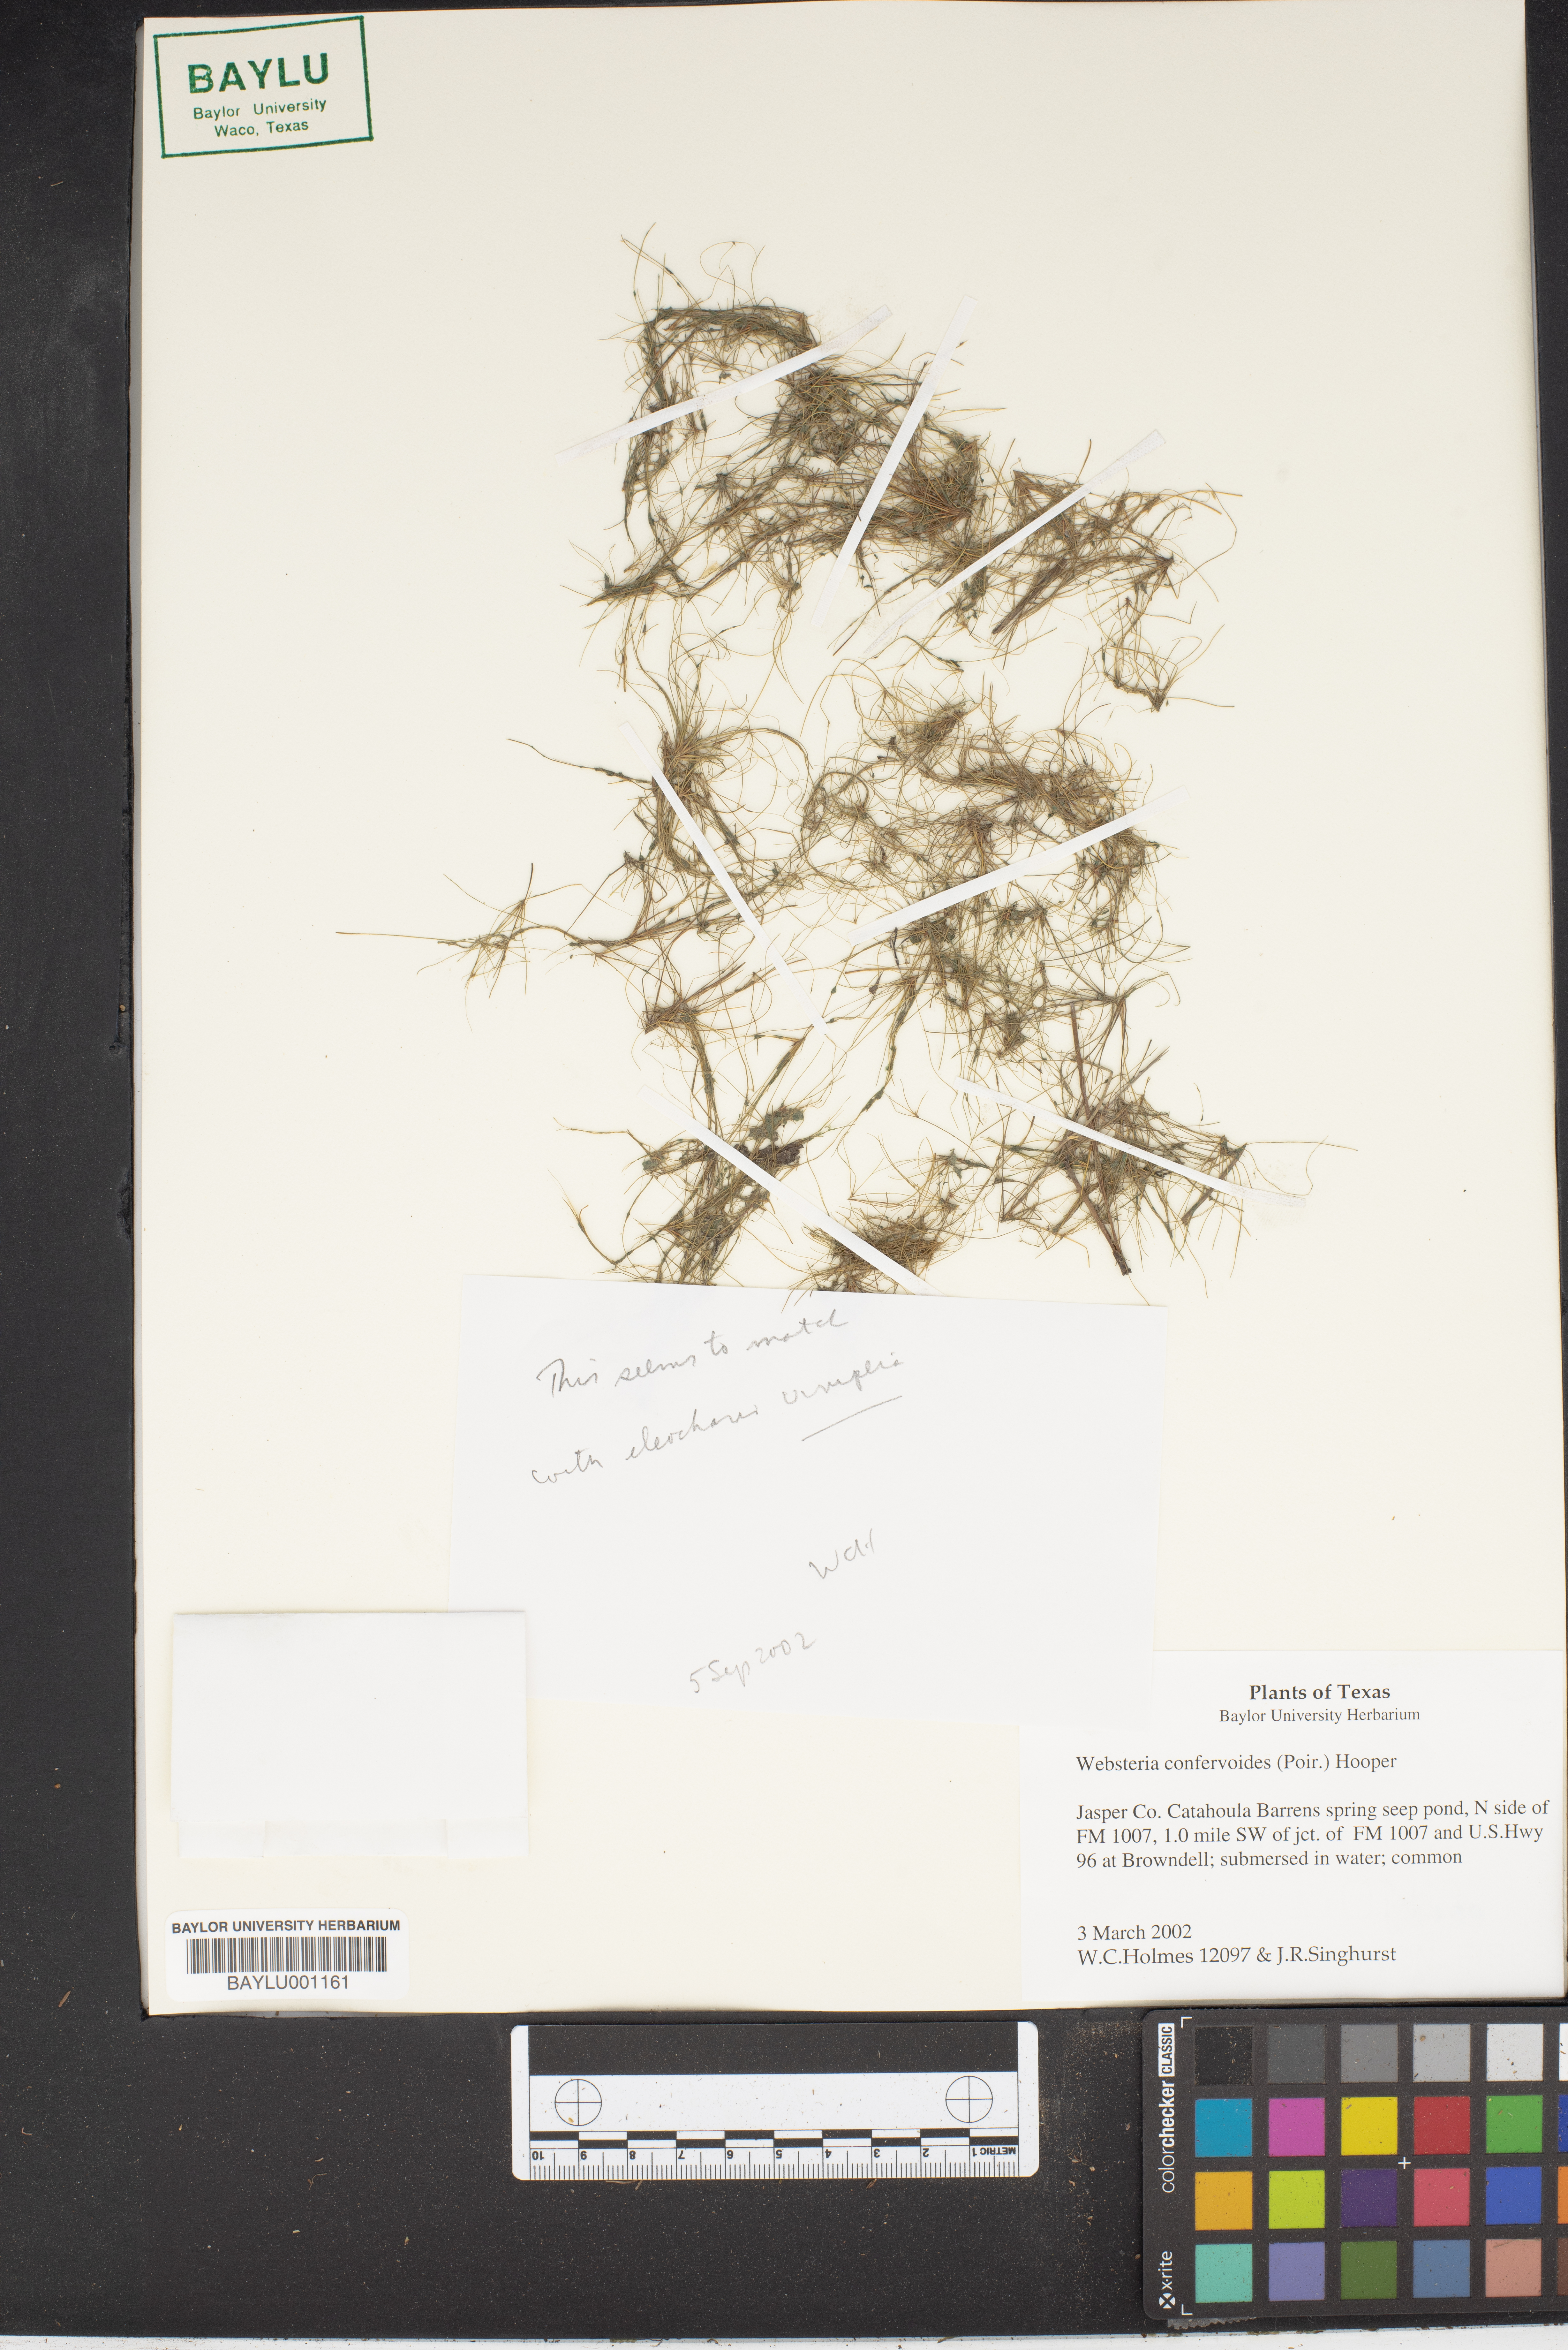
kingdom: Plantae
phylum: Tracheophyta
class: Liliopsida
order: Poales
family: Cyperaceae
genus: Eleocharis
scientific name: Eleocharis confervoides
